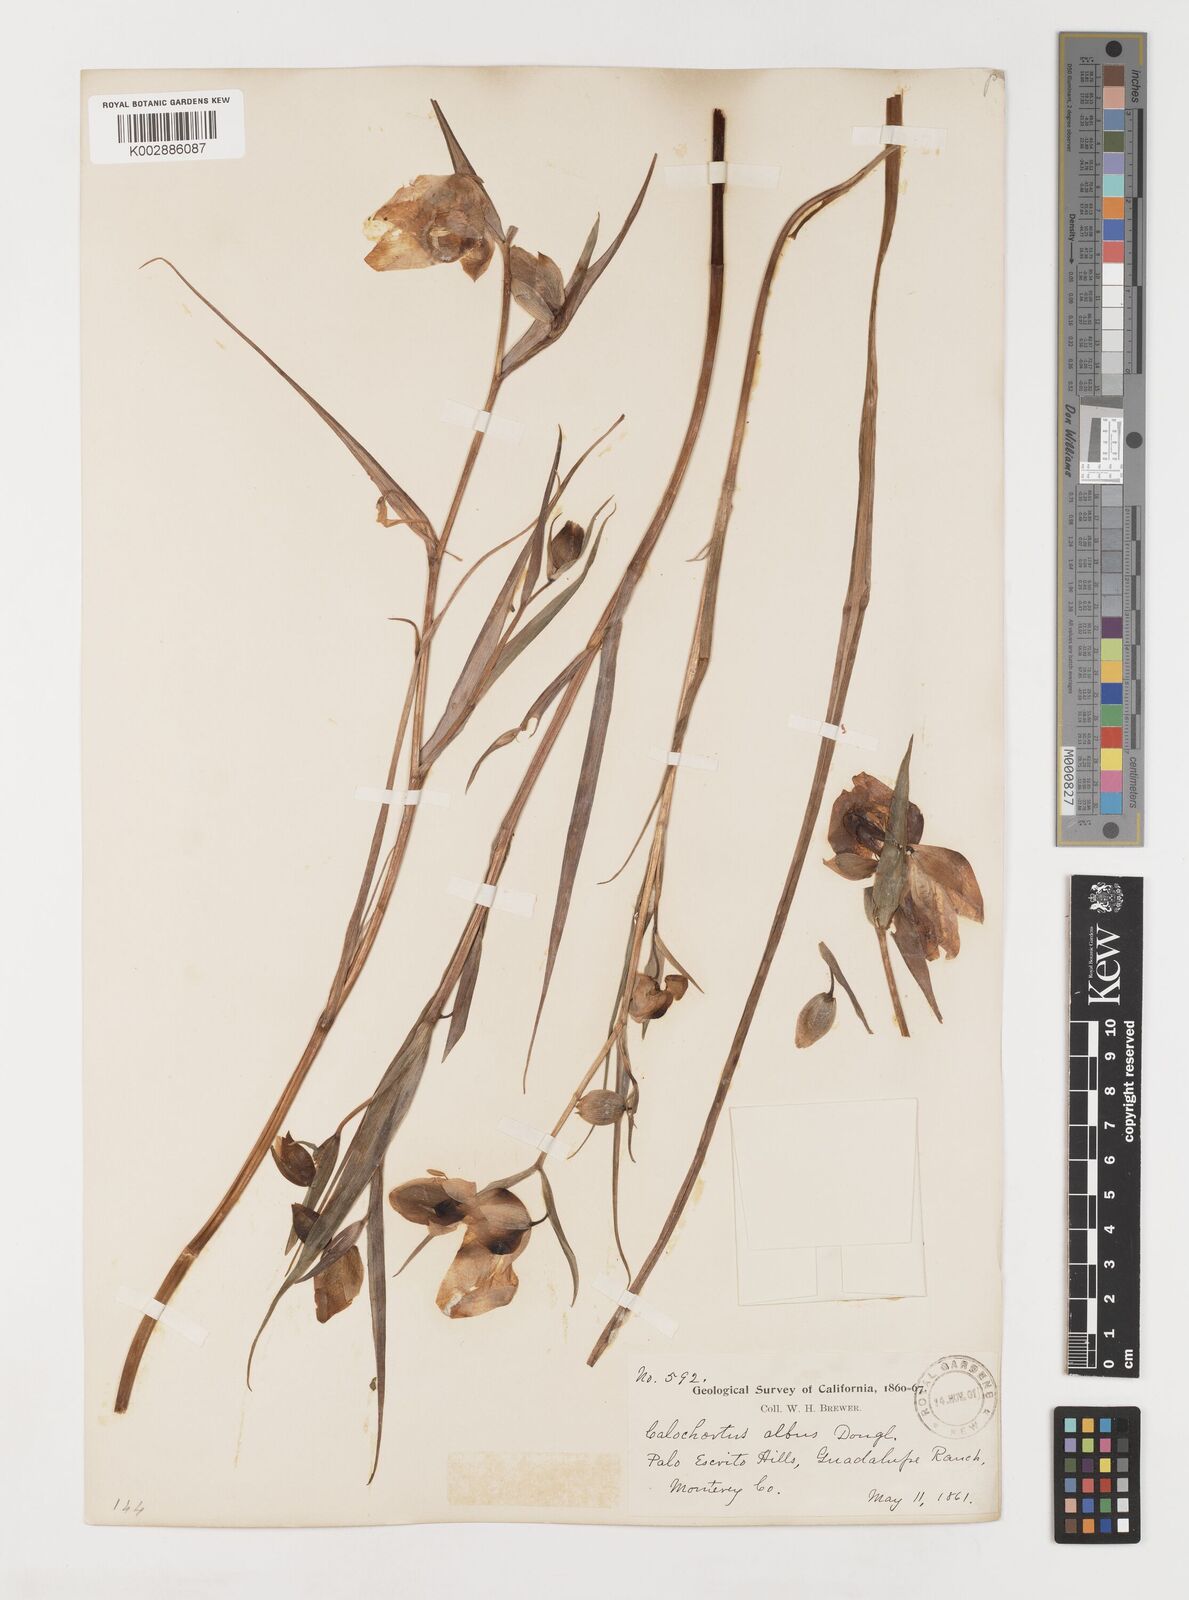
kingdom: Plantae
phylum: Tracheophyta
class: Liliopsida
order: Liliales
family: Liliaceae
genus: Calochortus
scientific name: Calochortus albus
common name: Fairy-lantern
